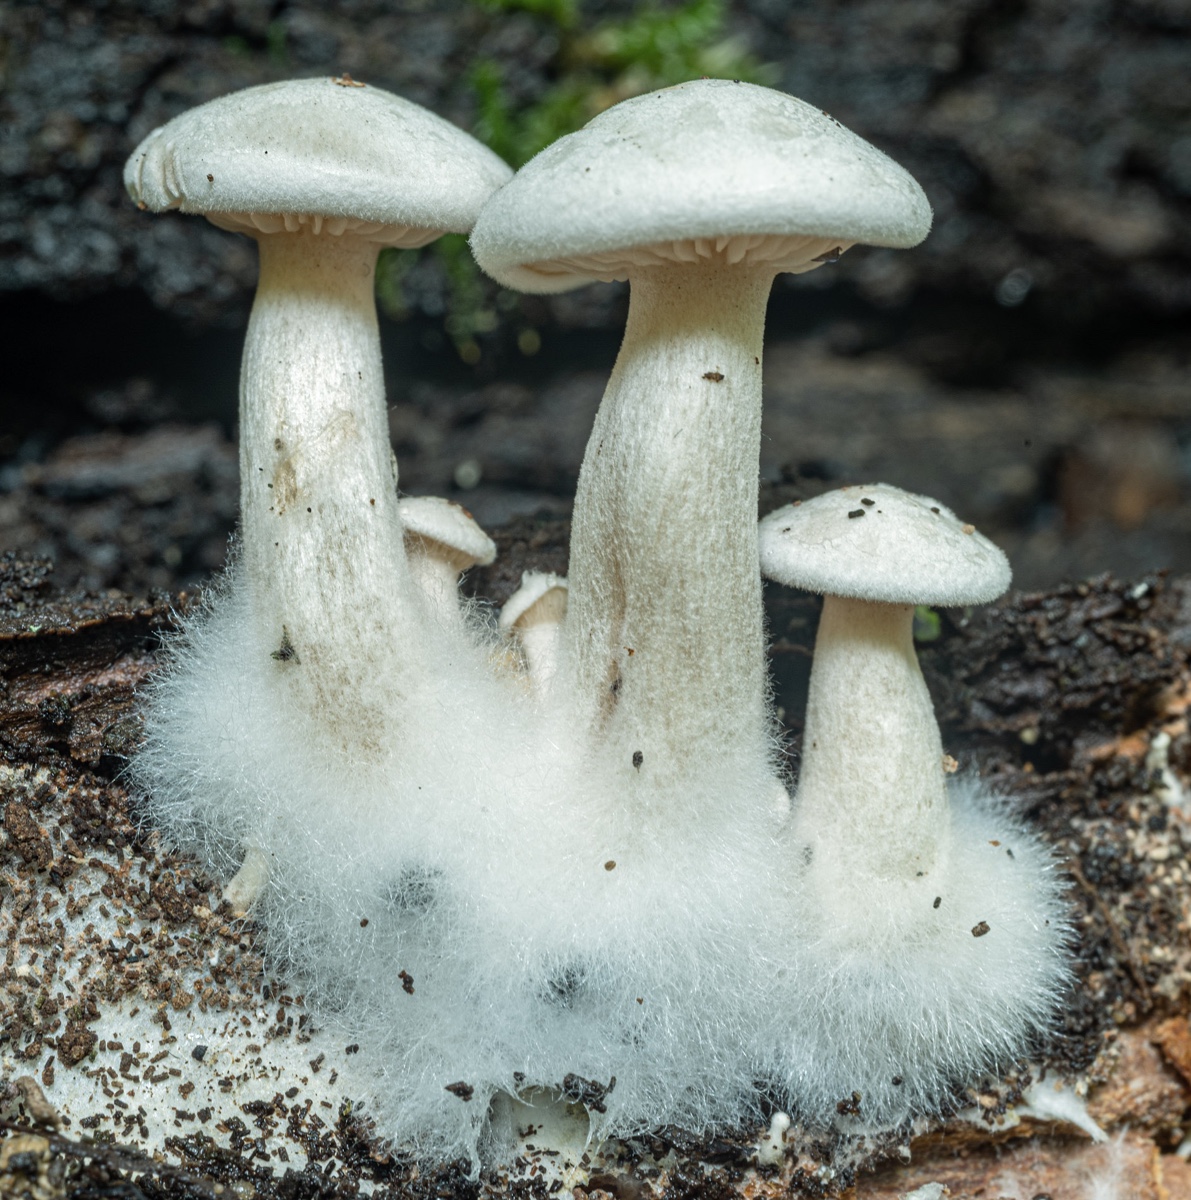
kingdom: Fungi
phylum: Basidiomycota
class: Agaricomycetes
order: Agaricales
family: Tricholomataceae
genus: Clitocybe
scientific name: Clitocybe
